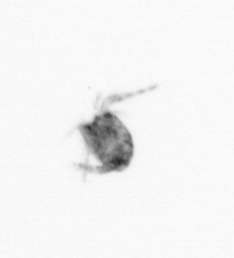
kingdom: Animalia
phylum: Arthropoda
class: Copepoda
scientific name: Copepoda
